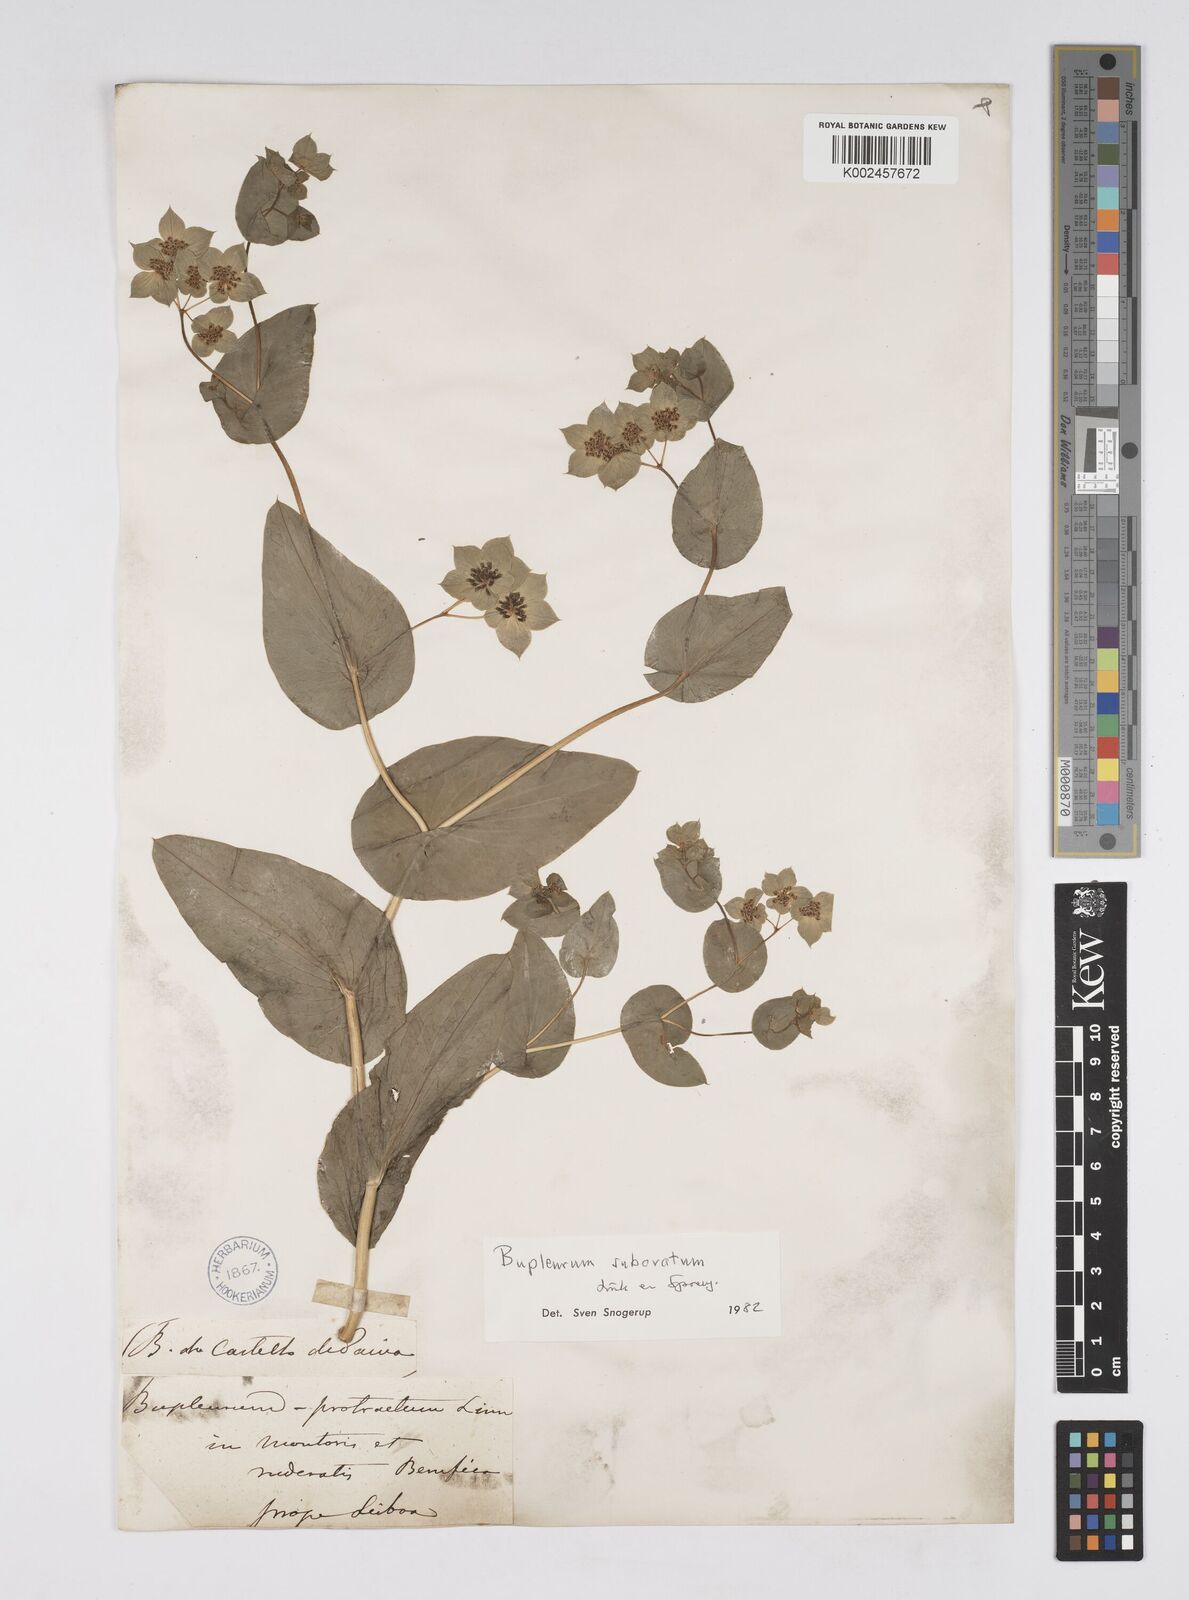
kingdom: Plantae
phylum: Tracheophyta
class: Magnoliopsida
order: Apiales
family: Apiaceae
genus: Bupleurum
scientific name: Bupleurum lancifolium
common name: False thorow-wax
